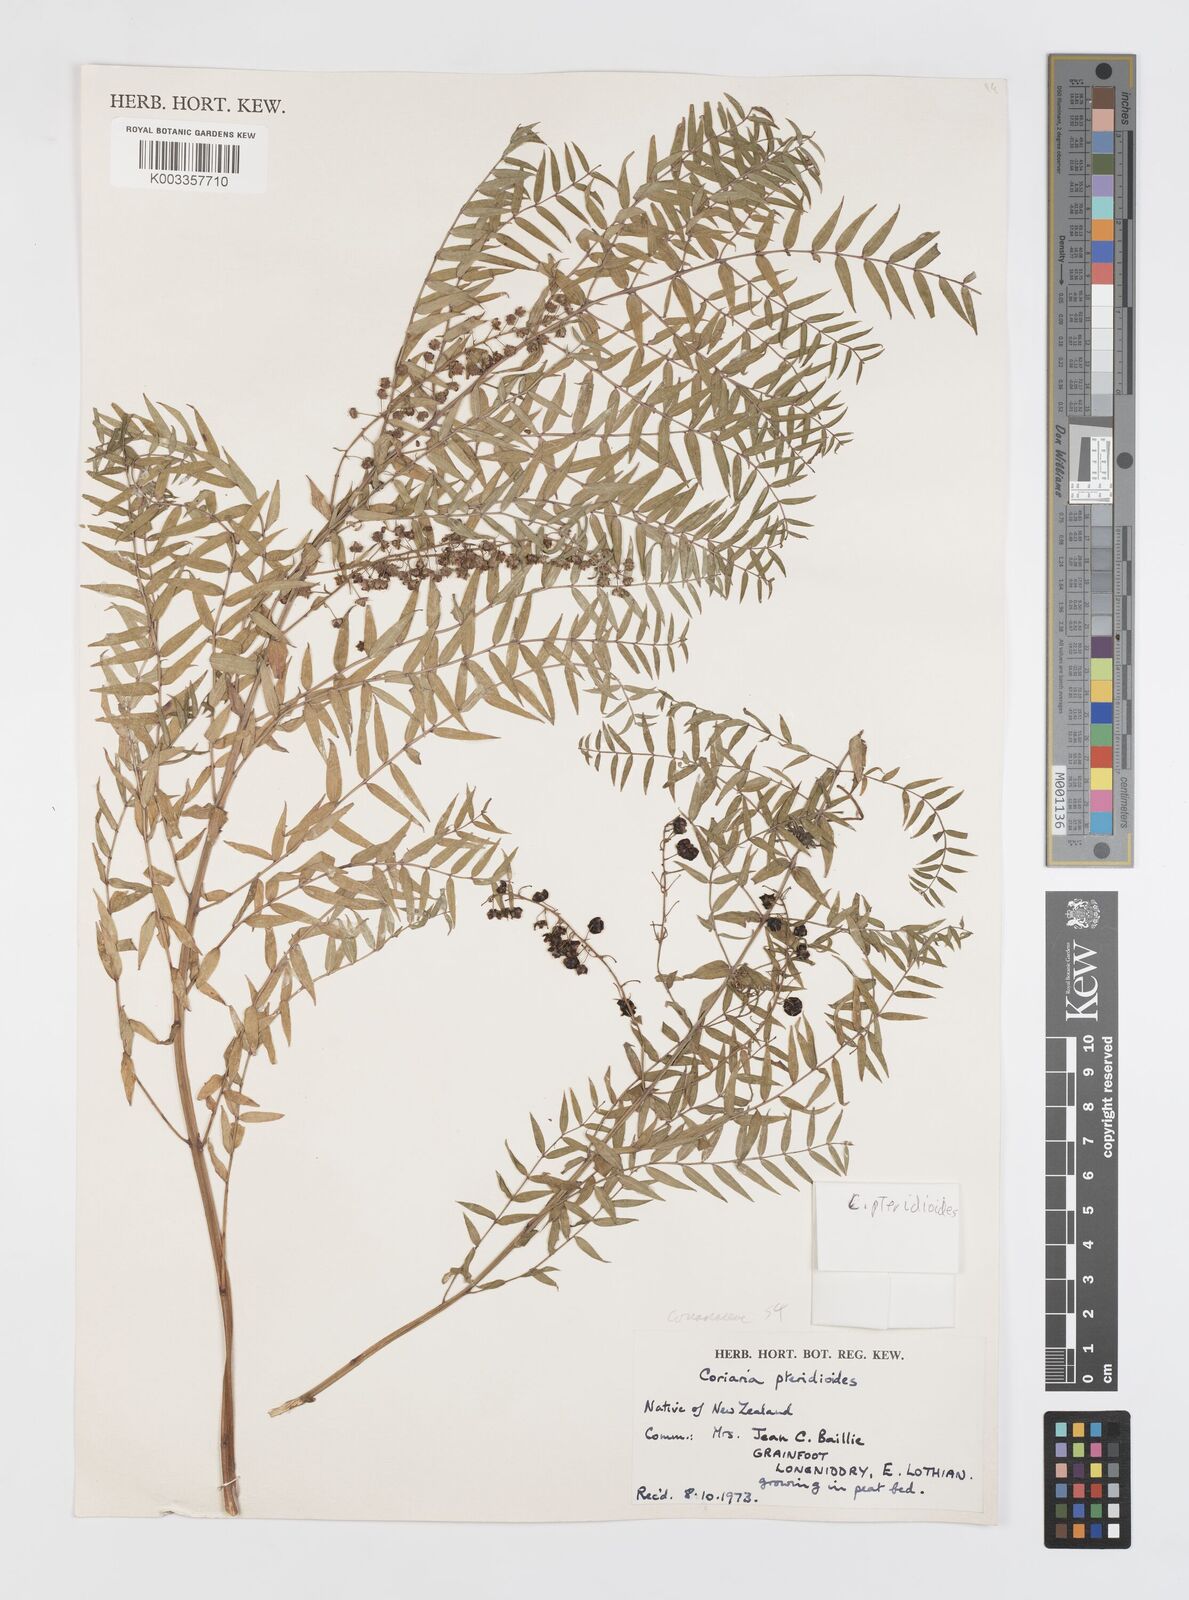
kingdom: Plantae
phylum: Tracheophyta
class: Magnoliopsida
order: Cucurbitales
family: Coriariaceae
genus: Coriaria
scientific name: Coriaria pteridoides
